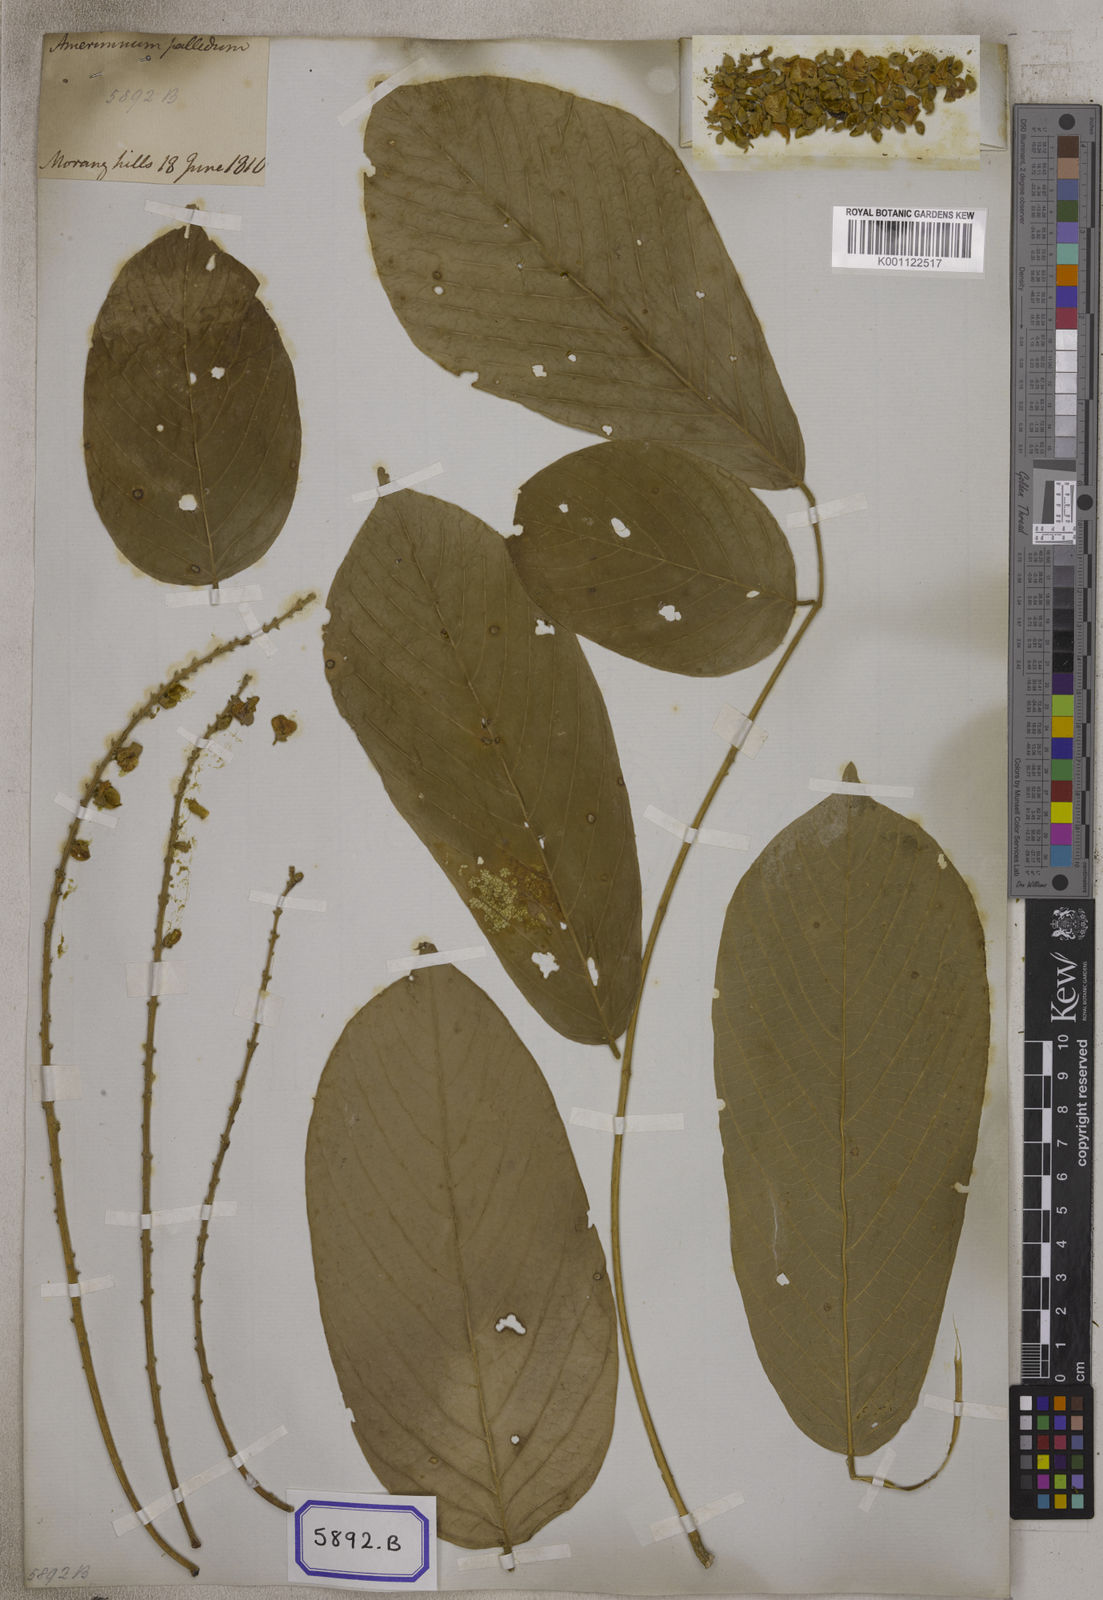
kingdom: Plantae
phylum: Tracheophyta
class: Magnoliopsida
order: Fabales
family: Fabaceae
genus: Pongamia
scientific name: Pongamia
